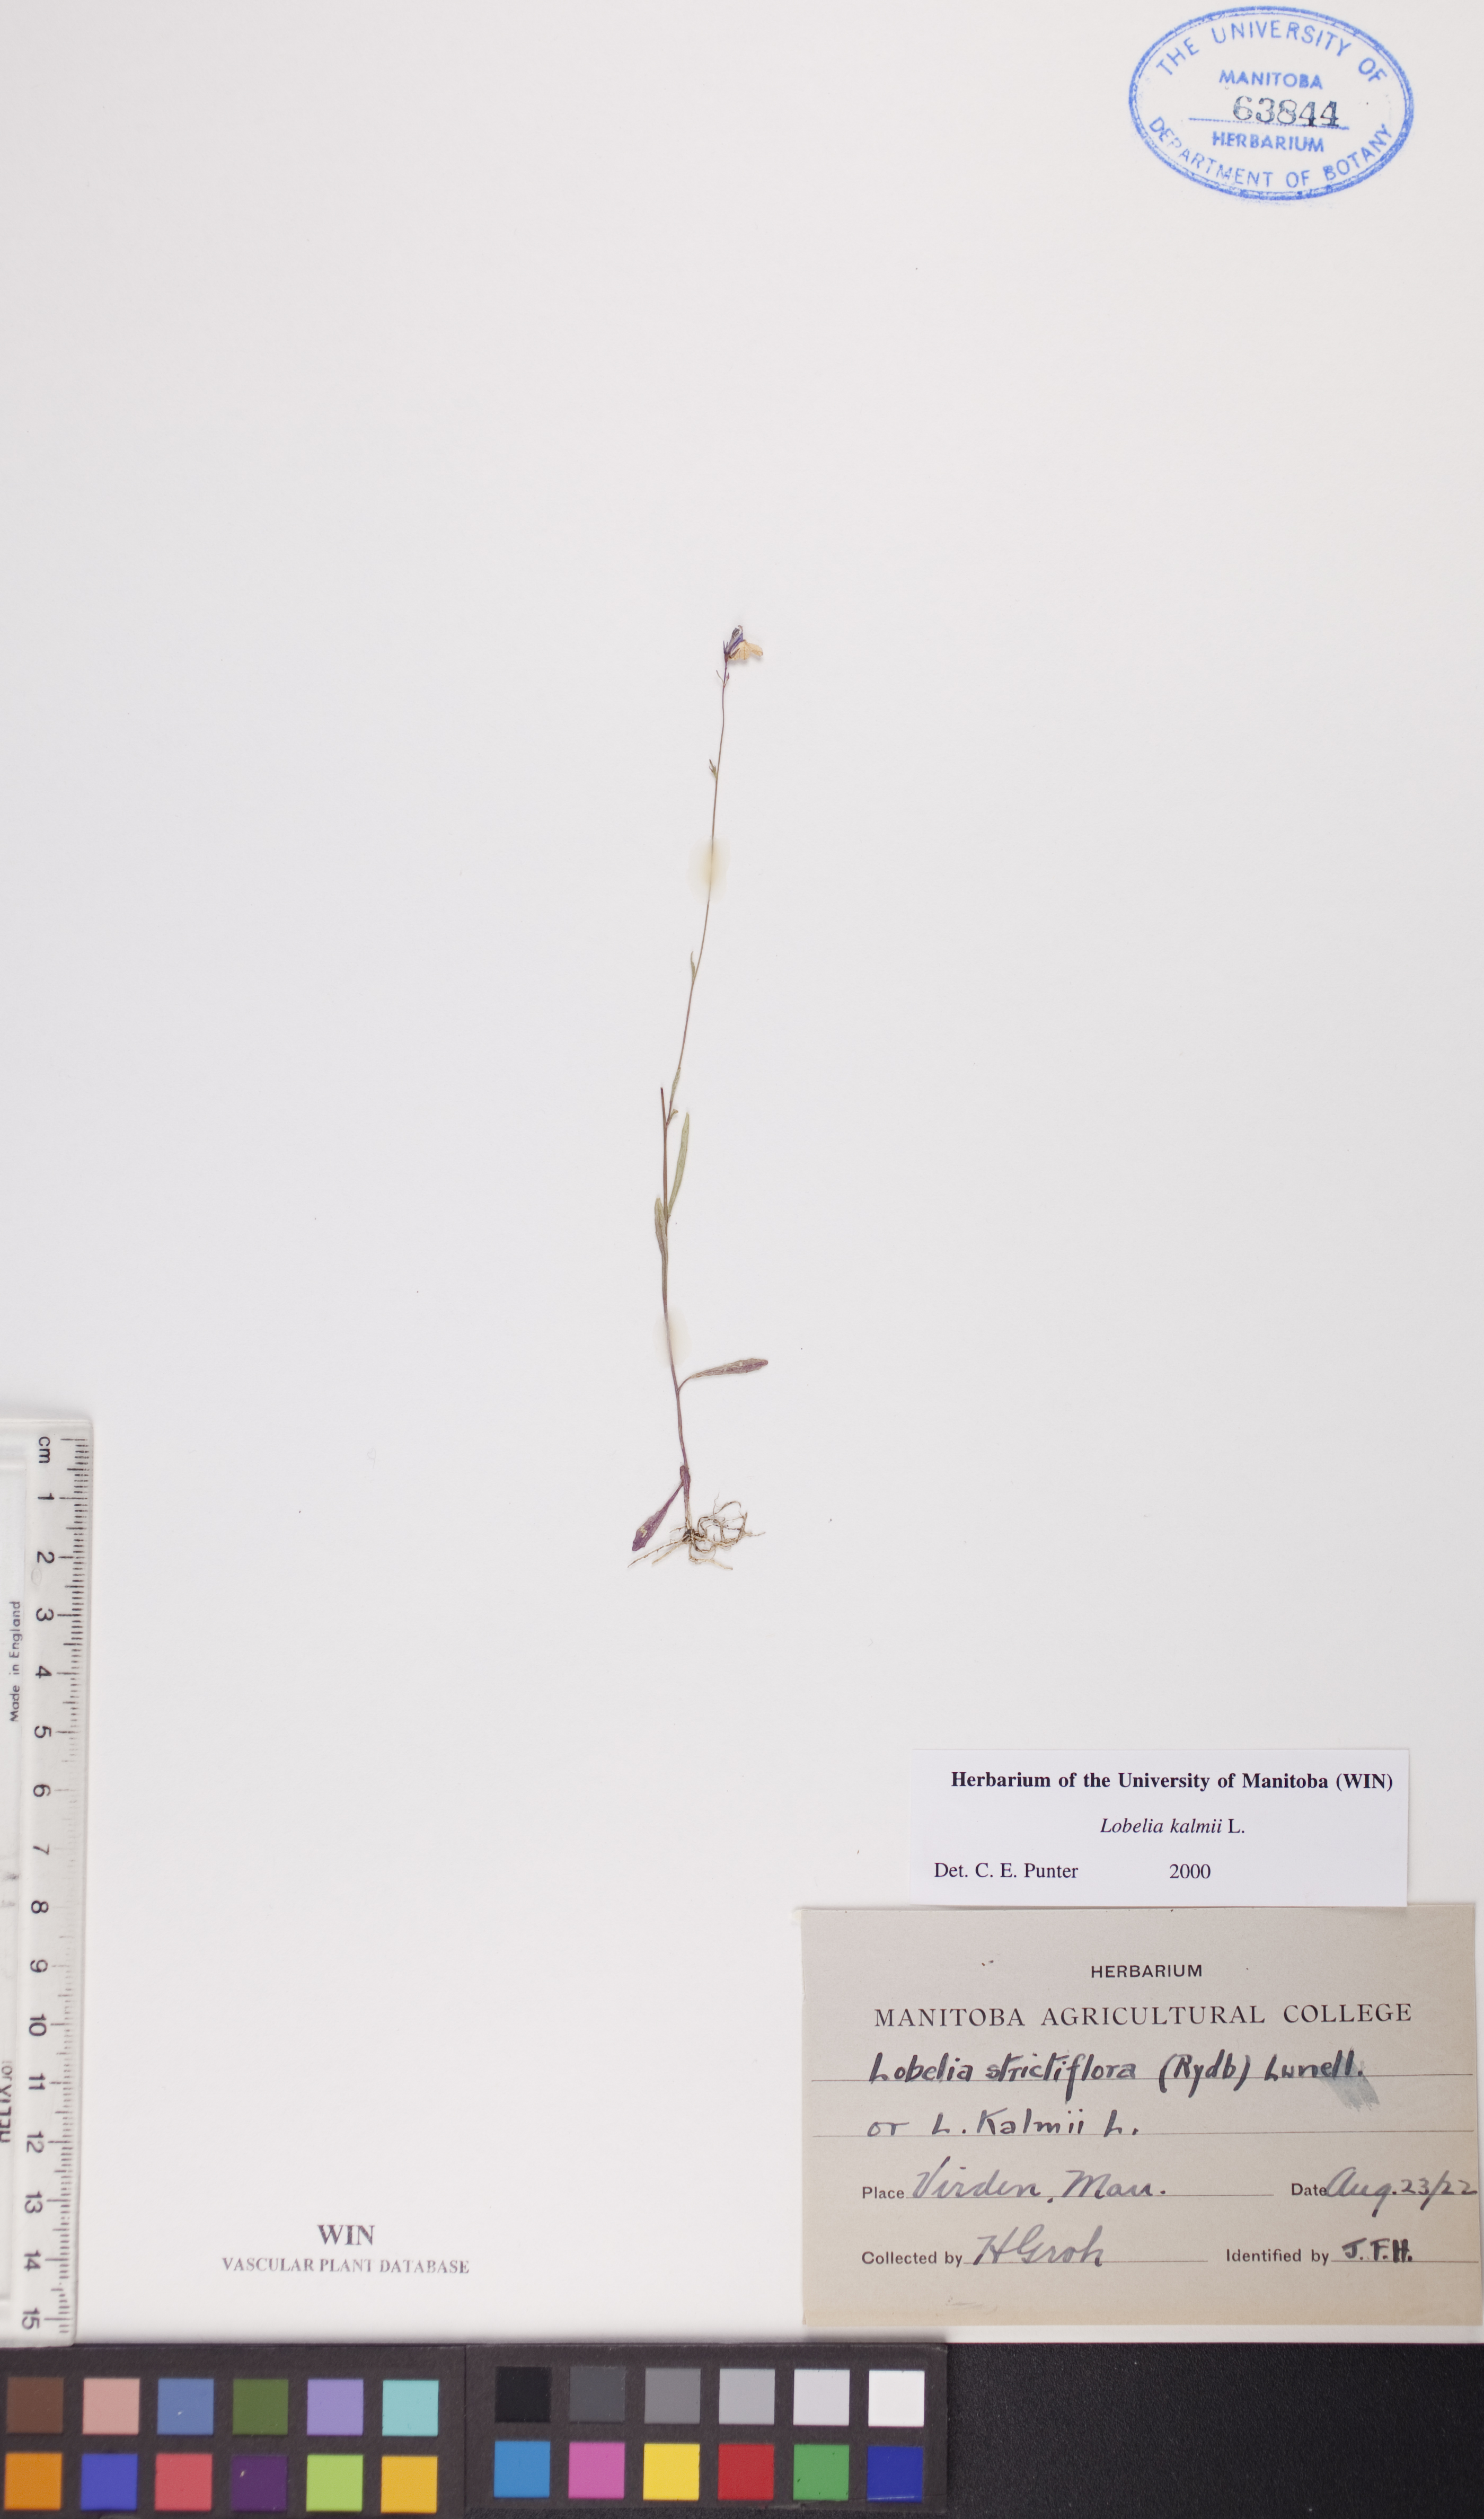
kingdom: Plantae
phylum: Tracheophyta
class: Magnoliopsida
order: Asterales
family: Campanulaceae
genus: Lobelia
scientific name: Lobelia kalmii
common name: Kalm's lobelia
